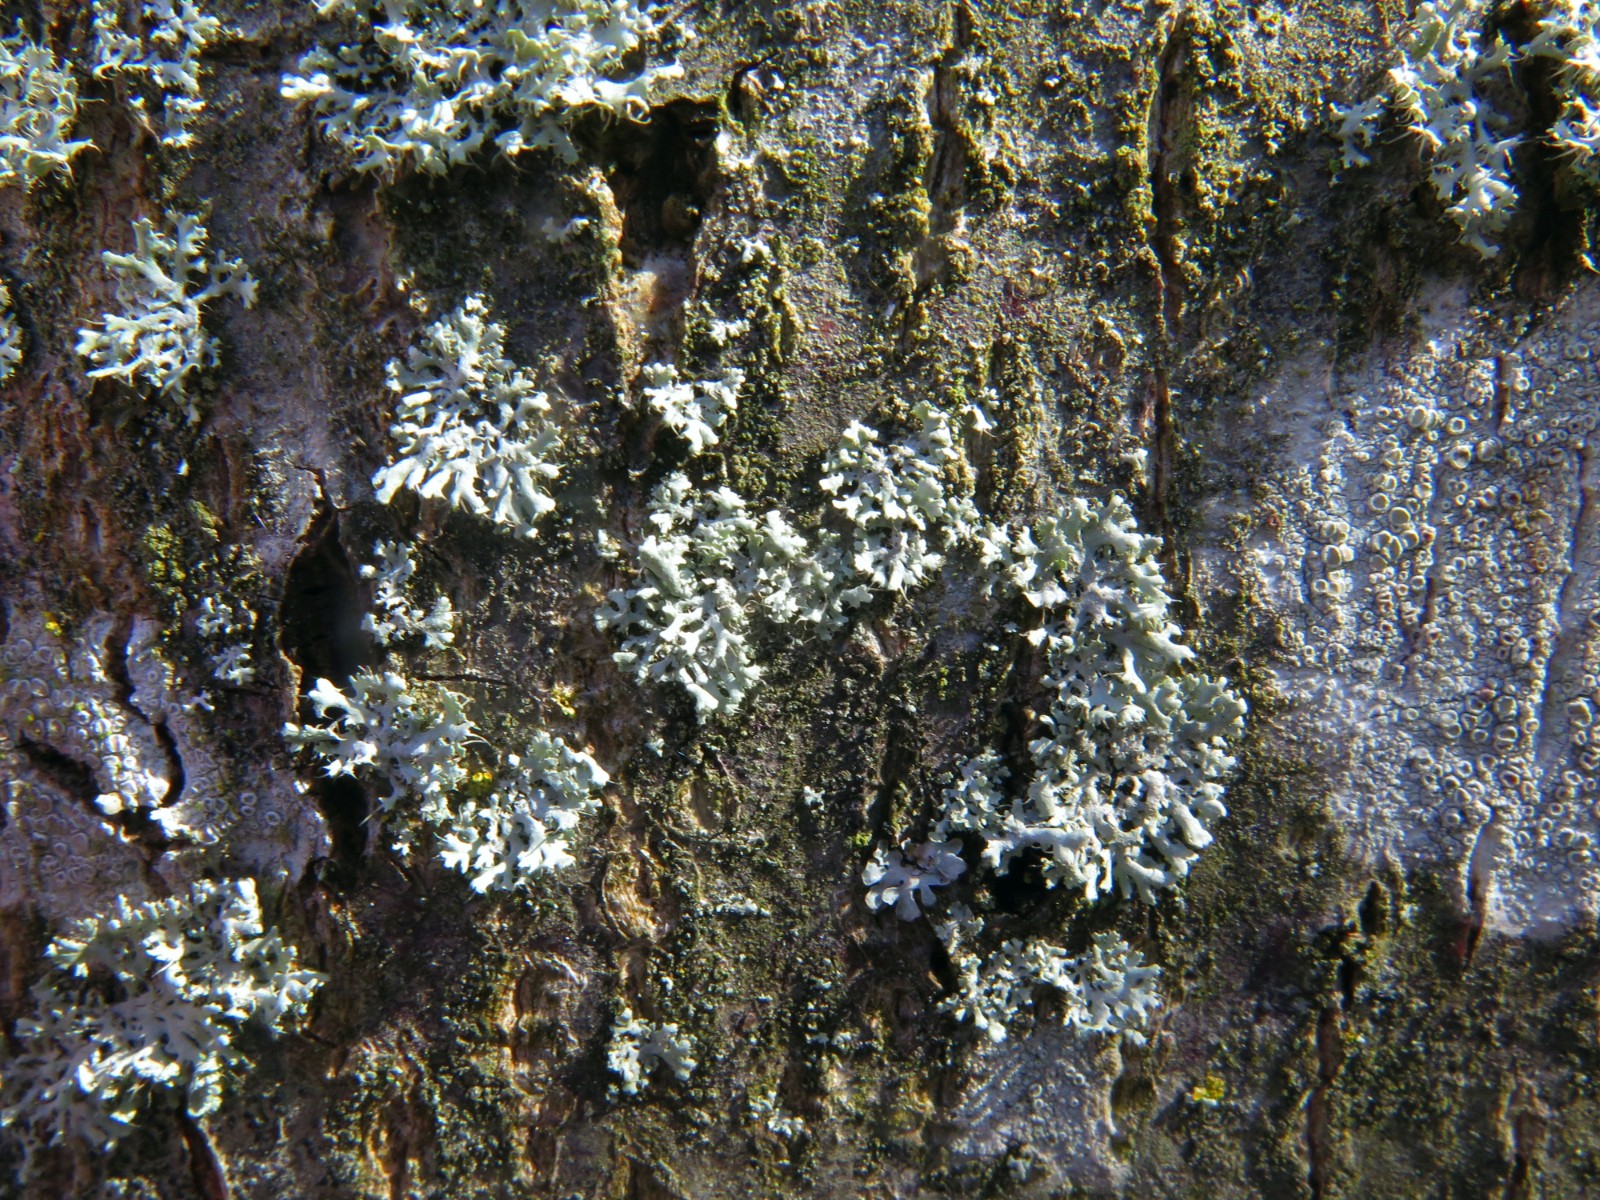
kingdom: Fungi
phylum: Ascomycota
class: Lecanoromycetes
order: Caliciales
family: Physciaceae
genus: Physcia
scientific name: Physcia tenella
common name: spæd rosetlav
